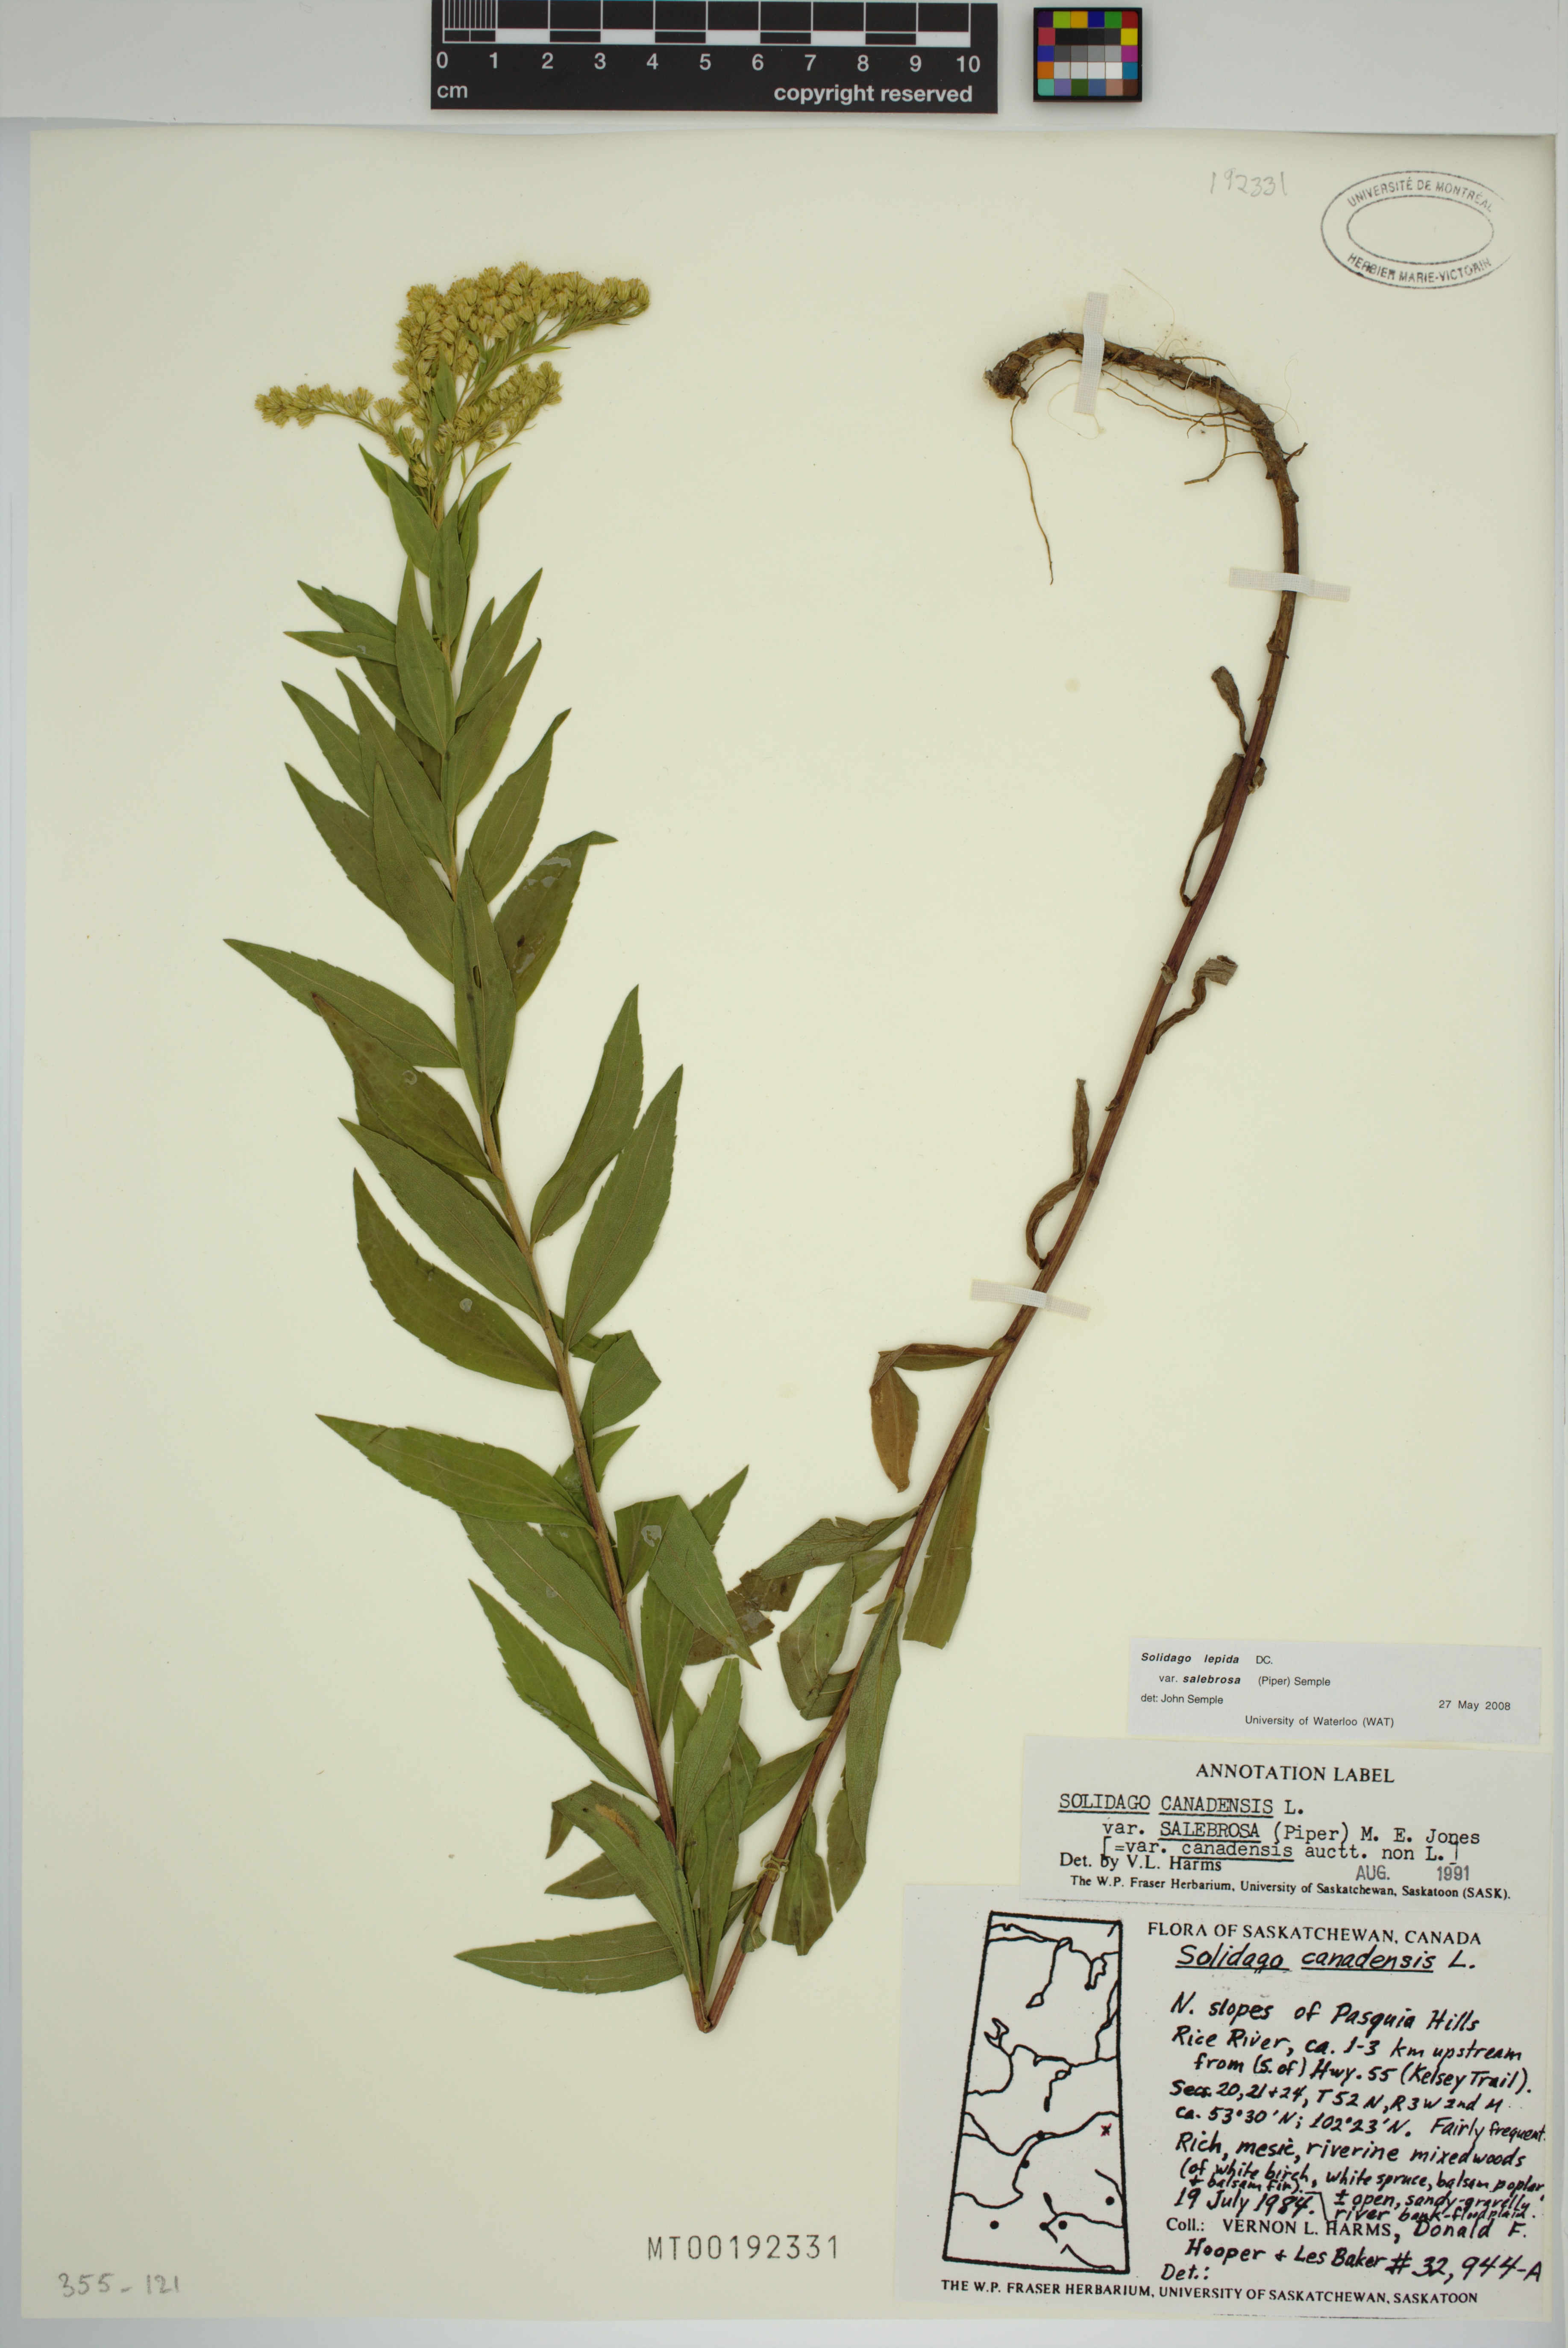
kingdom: Plantae
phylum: Tracheophyta
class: Magnoliopsida
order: Asterales
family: Asteraceae
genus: Solidago
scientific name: Solidago lepida
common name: Western canada goldenrod
